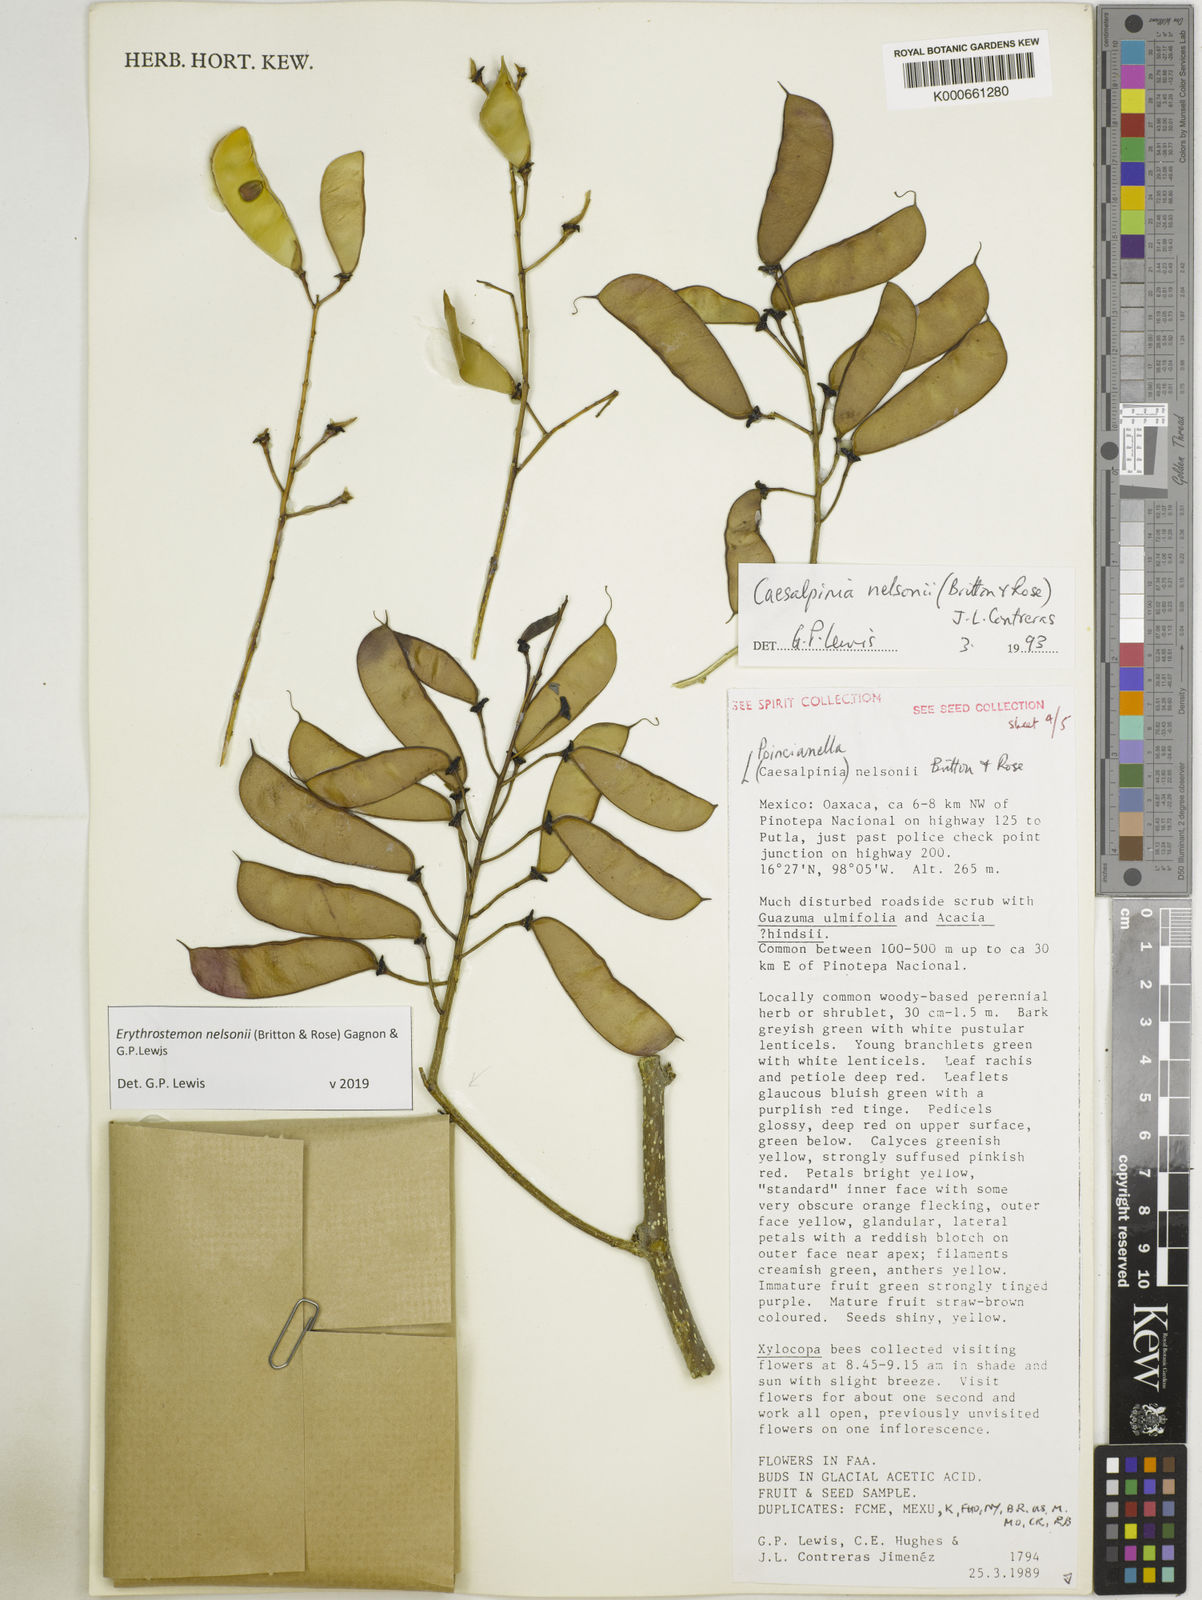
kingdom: Plantae
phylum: Tracheophyta
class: Magnoliopsida
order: Fabales
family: Fabaceae
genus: Erythrostemon
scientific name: Erythrostemon nelsonii
